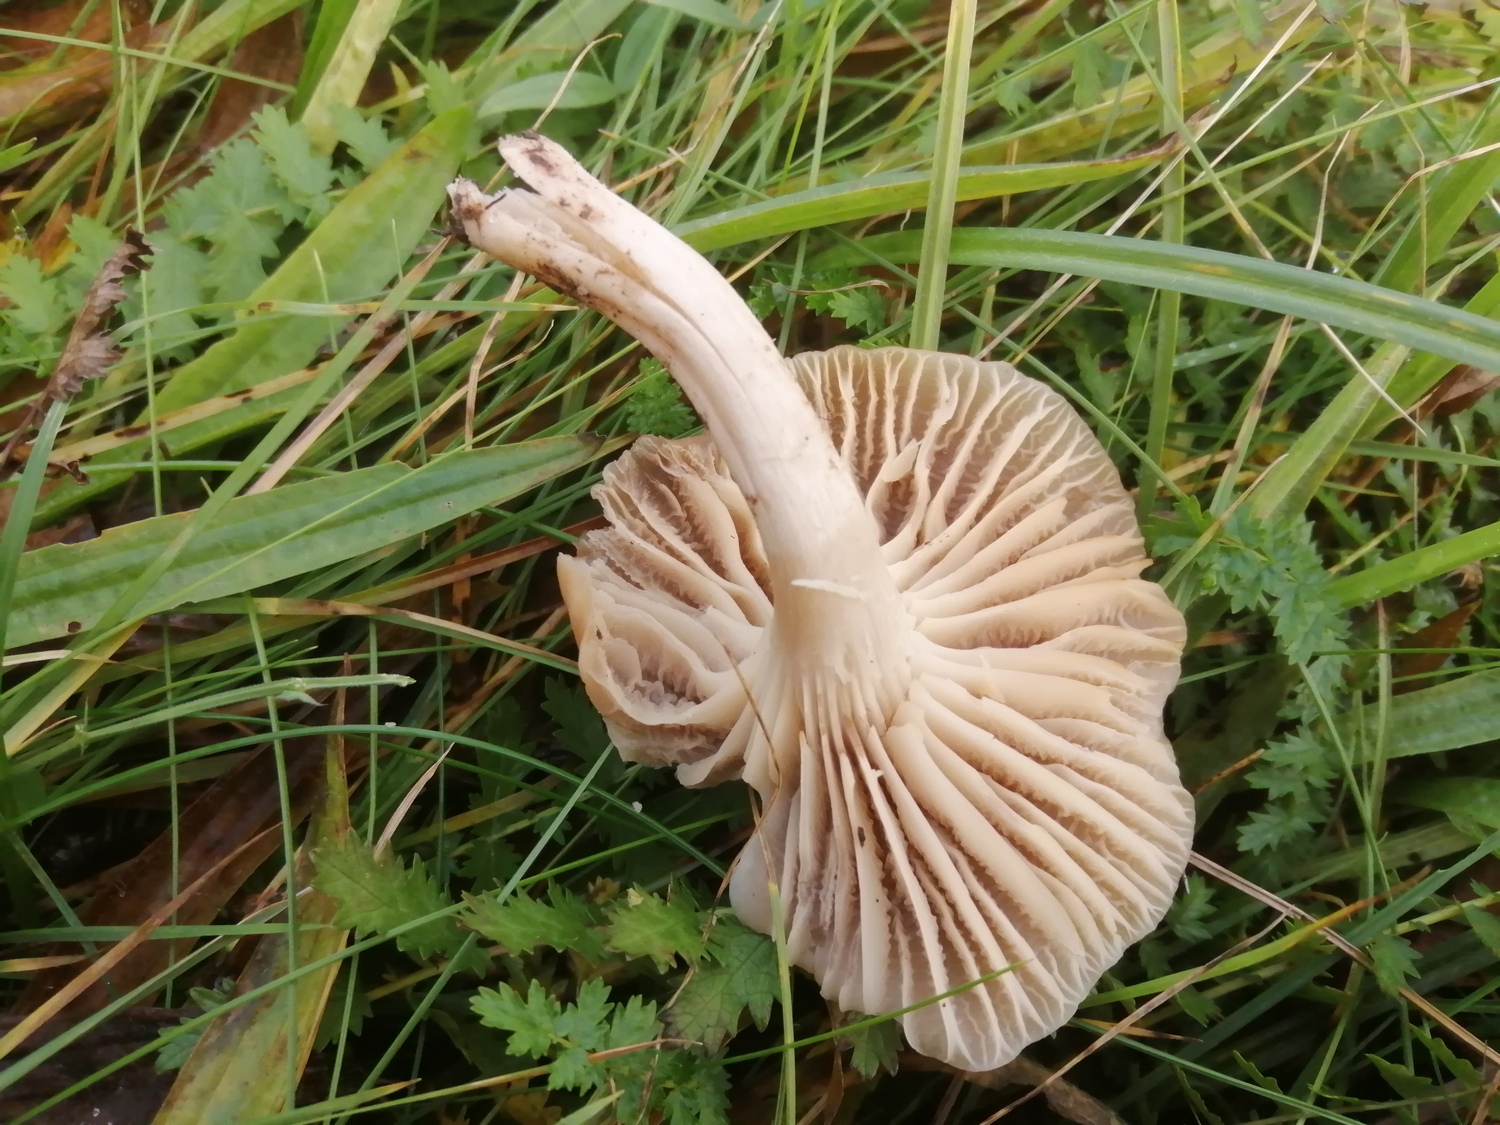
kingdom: Fungi
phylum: Basidiomycota
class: Agaricomycetes
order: Agaricales
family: Hygrophoraceae
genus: Cuphophyllus
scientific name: Cuphophyllus colemannianus
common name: rødbrun vokshat
